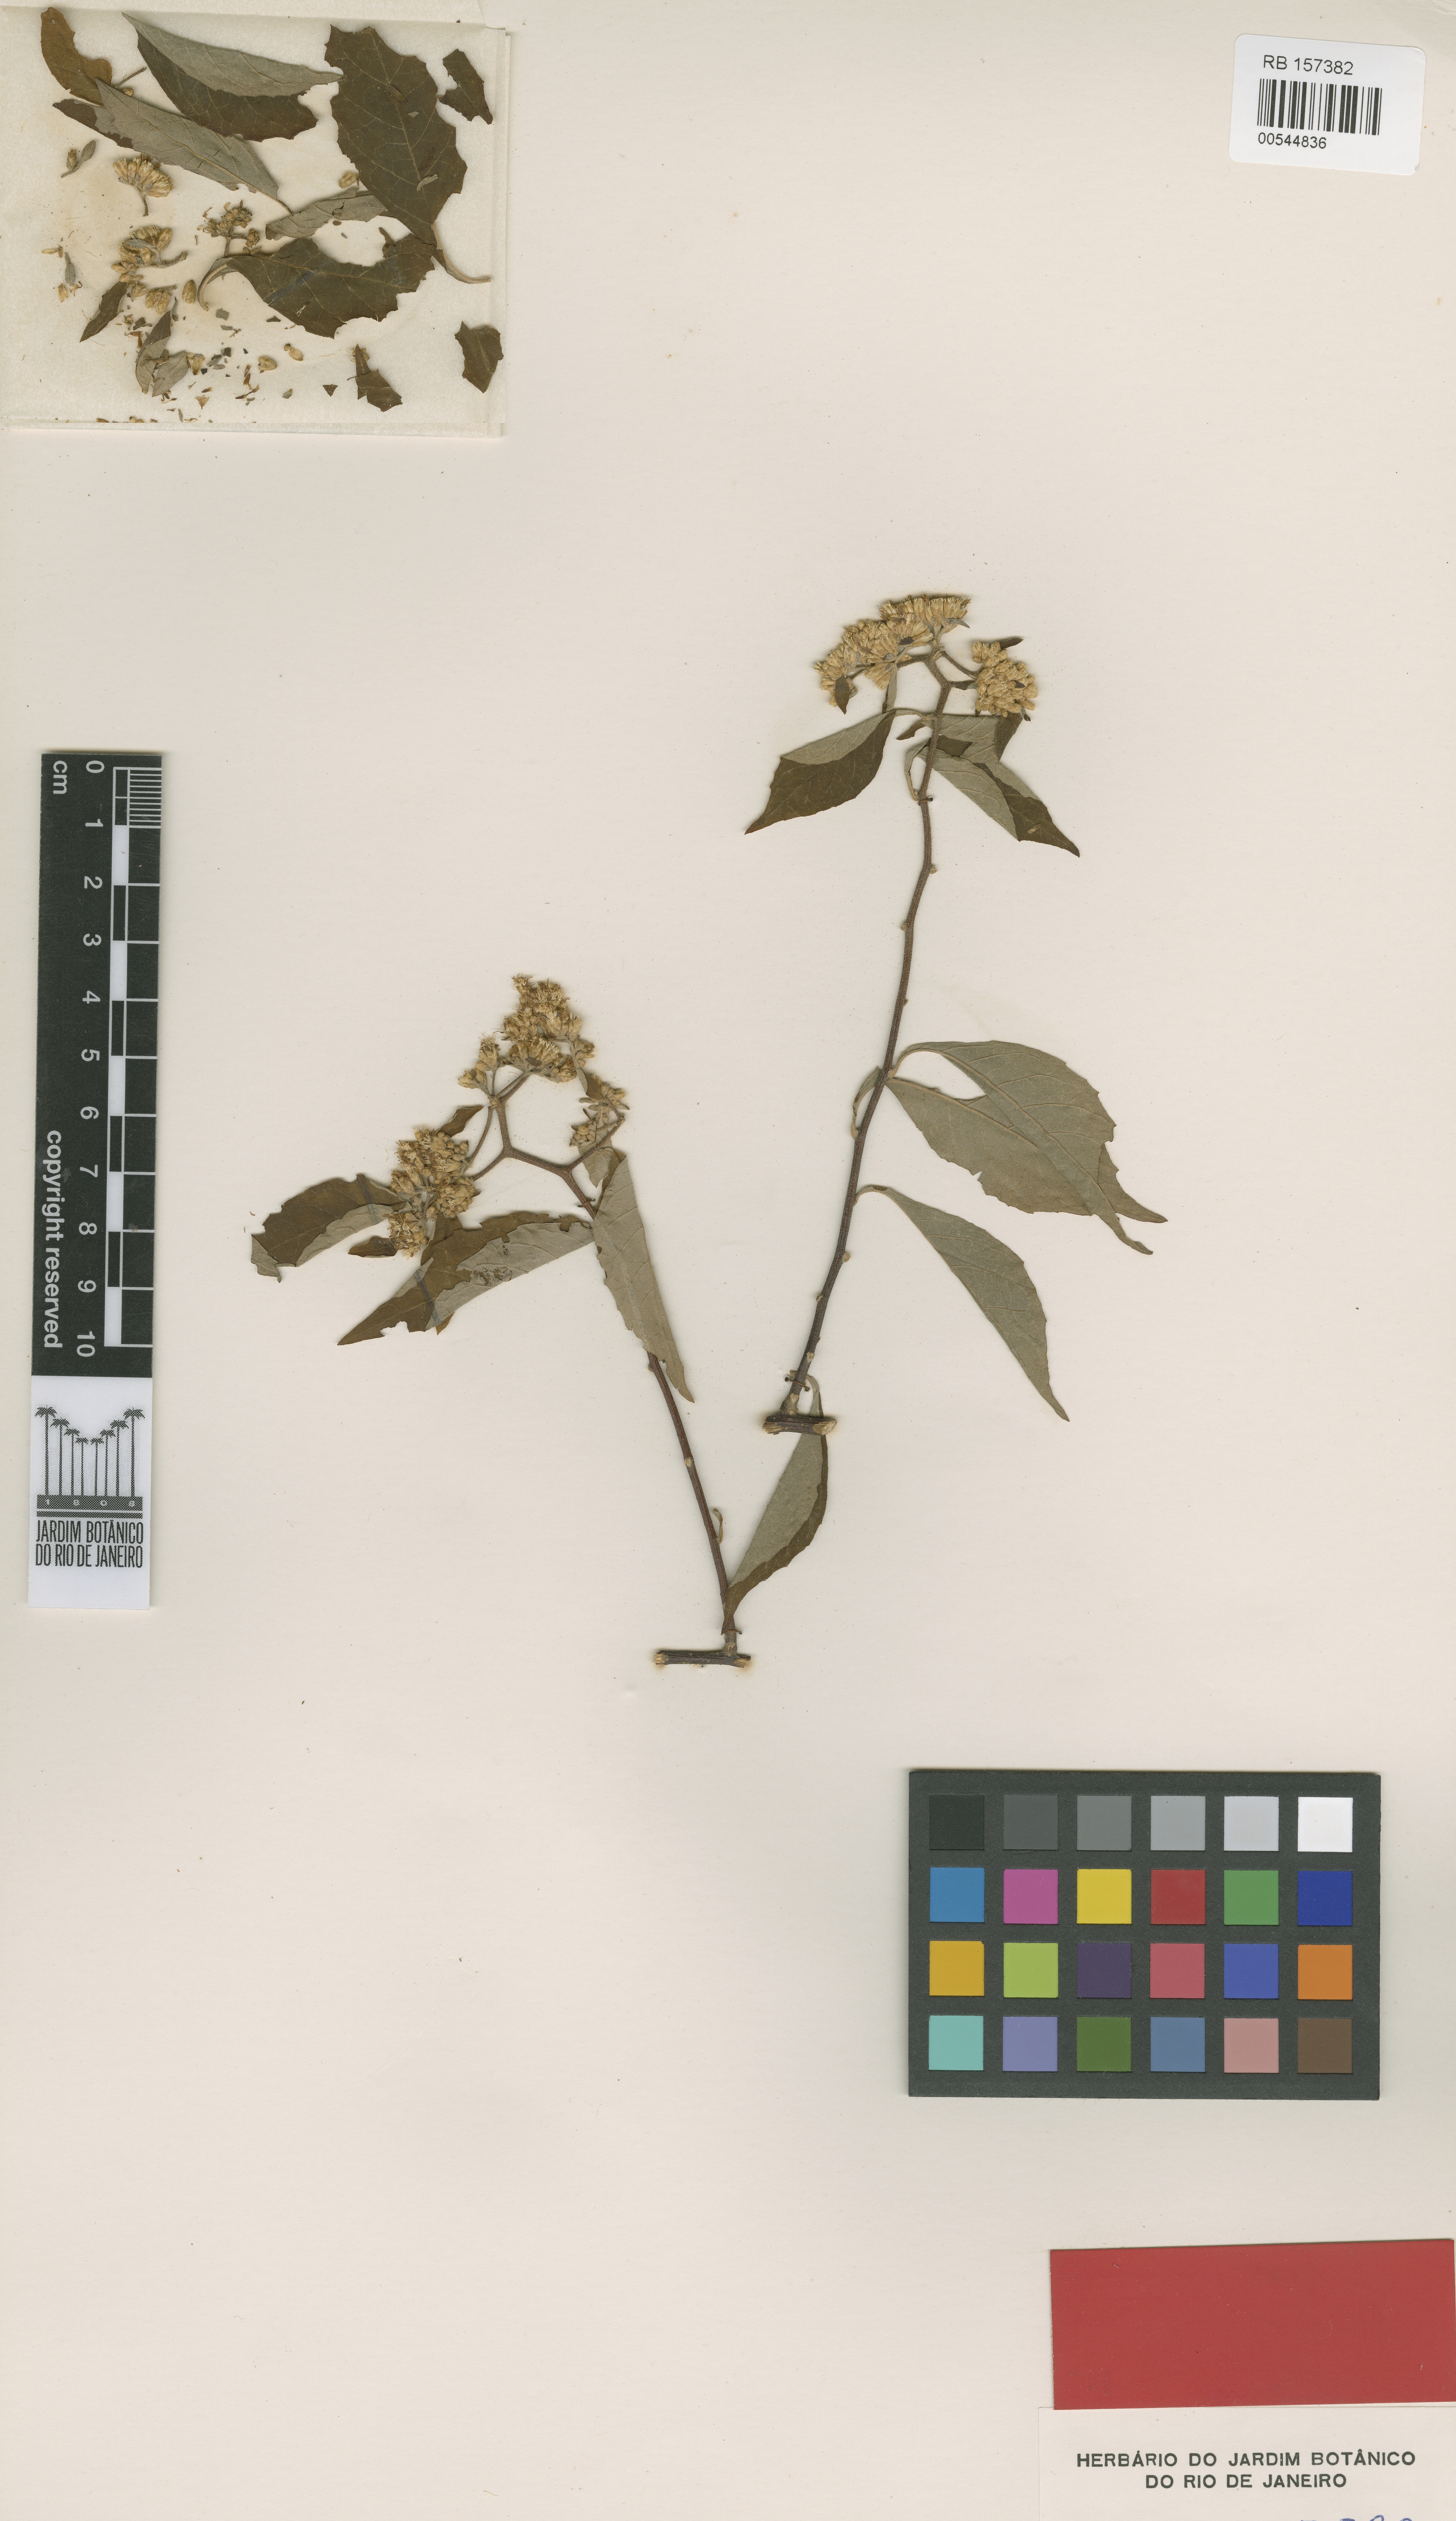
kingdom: Plantae
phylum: Tracheophyta
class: Magnoliopsida
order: Asterales
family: Asteraceae
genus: Blanchetia
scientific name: Blanchetia coronata
